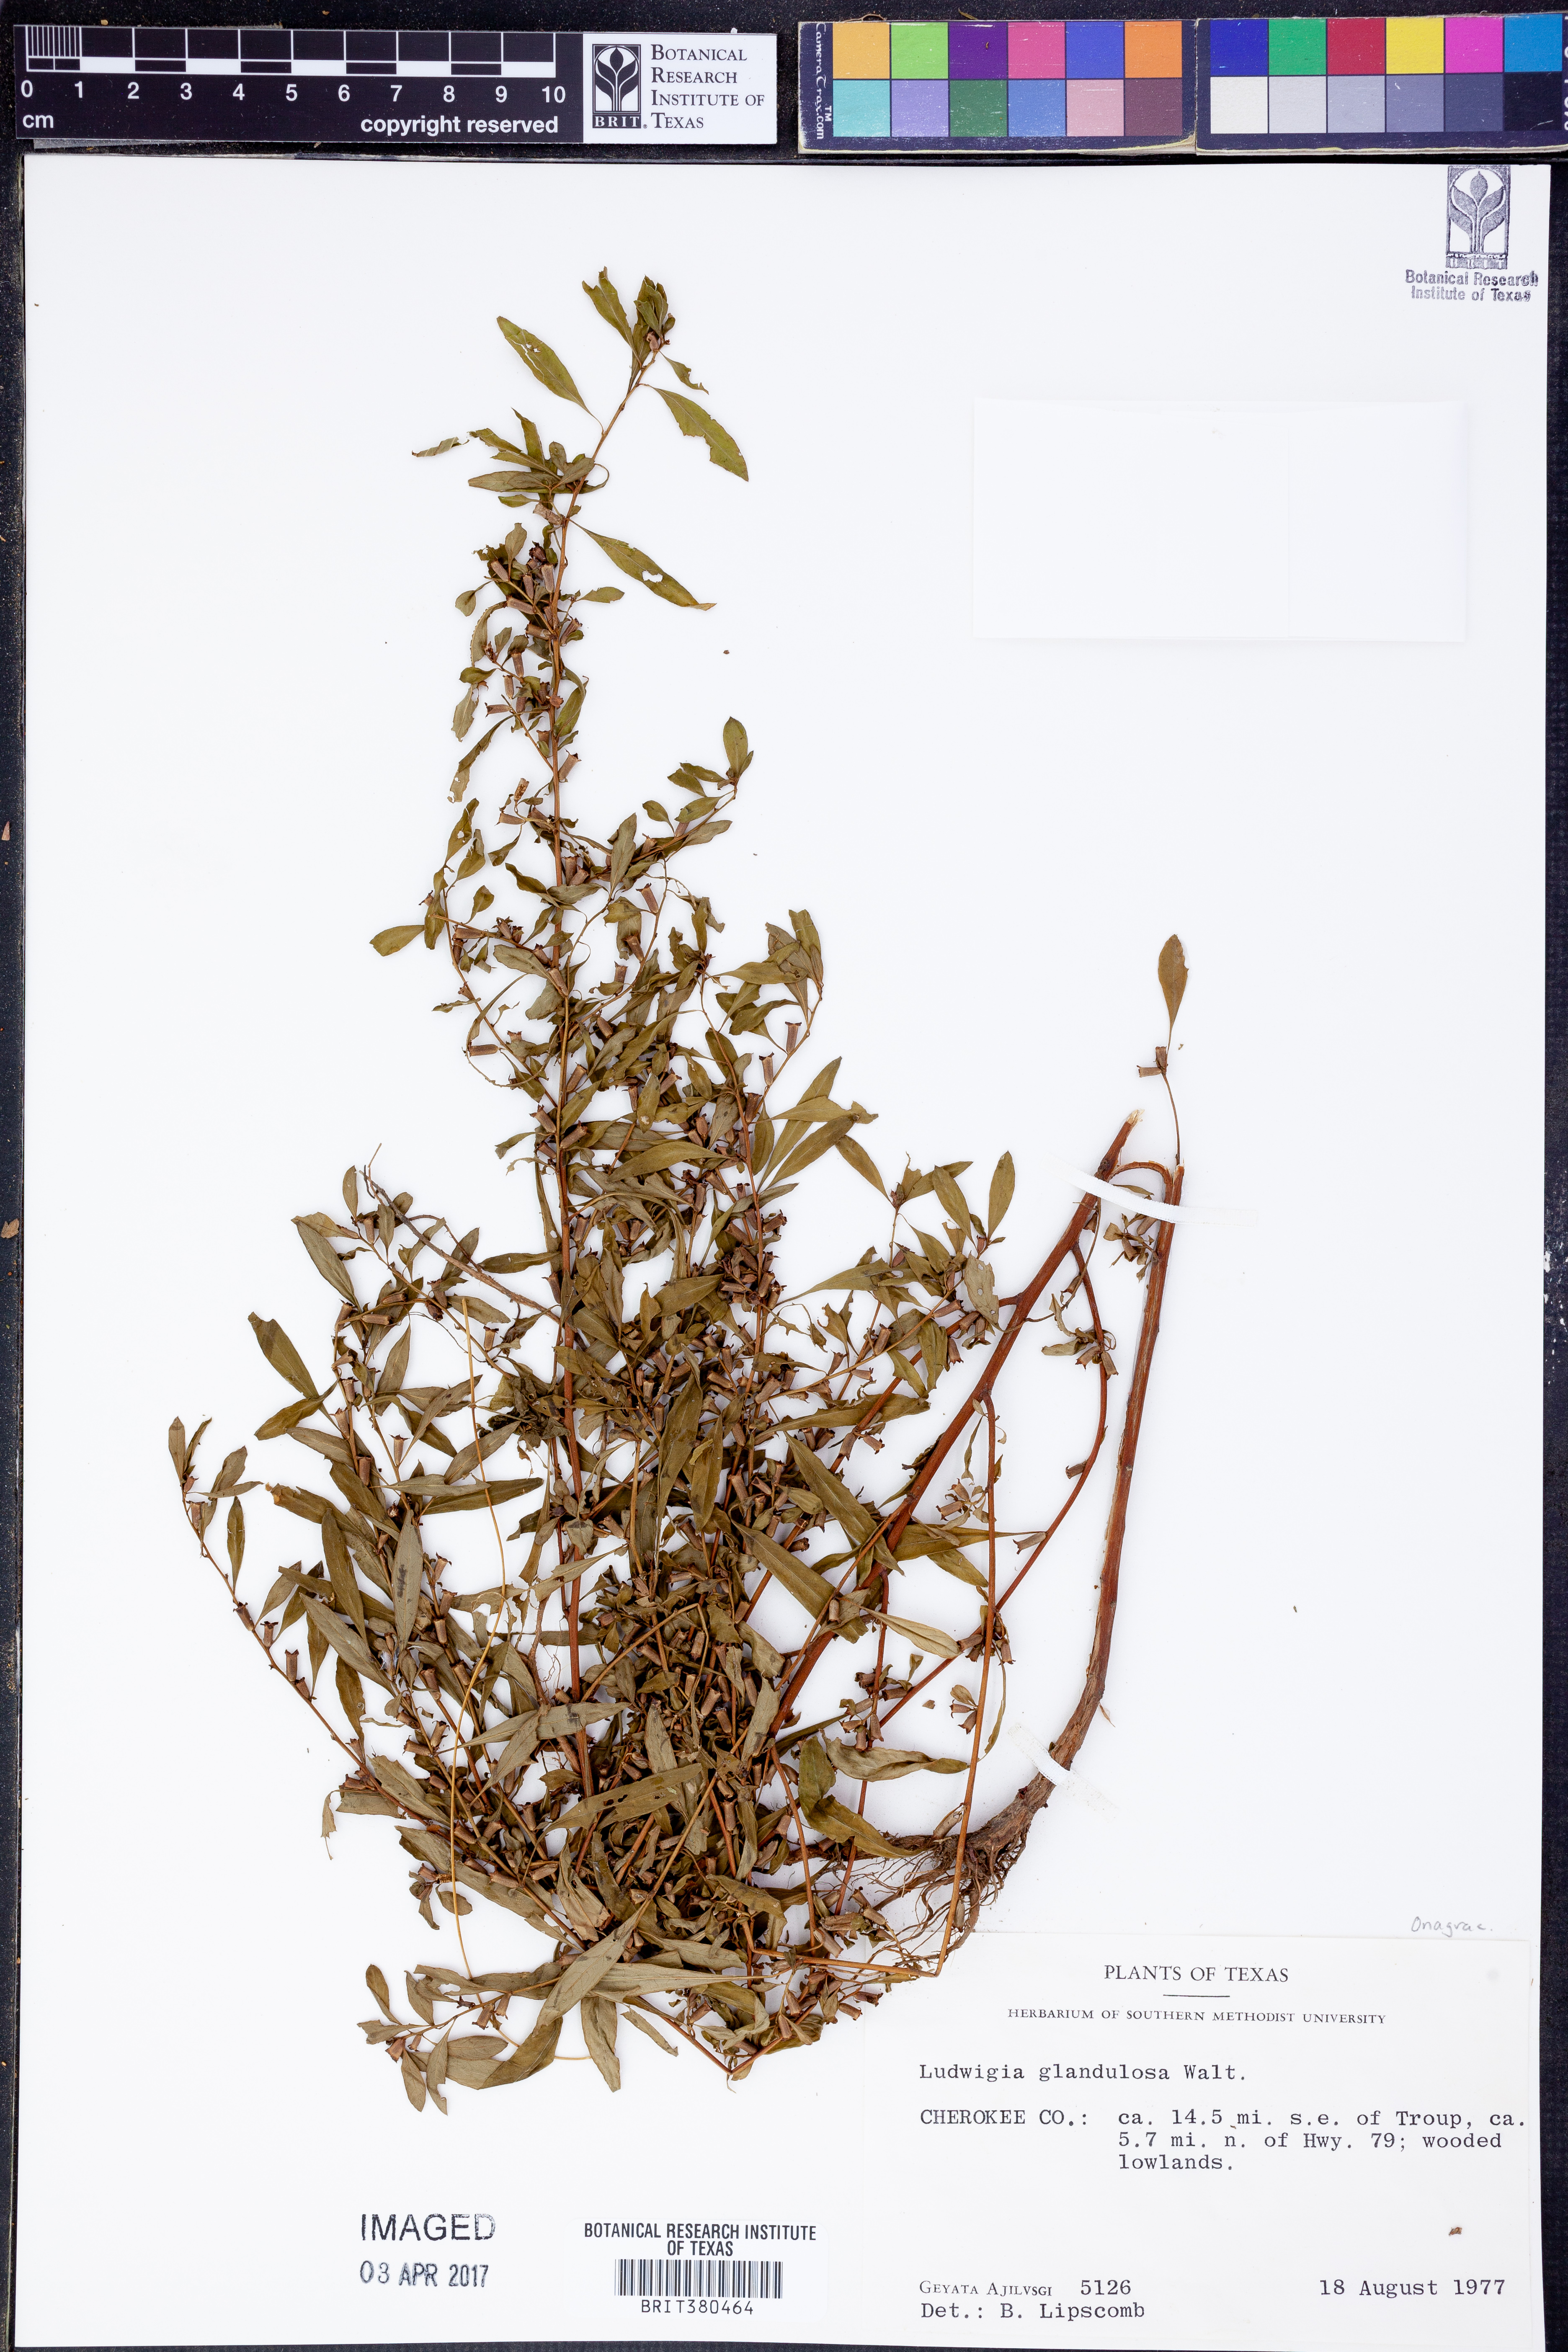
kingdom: Plantae
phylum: Tracheophyta
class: Magnoliopsida
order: Myrtales
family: Onagraceae
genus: Ludwigia
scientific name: Ludwigia glandulosa
